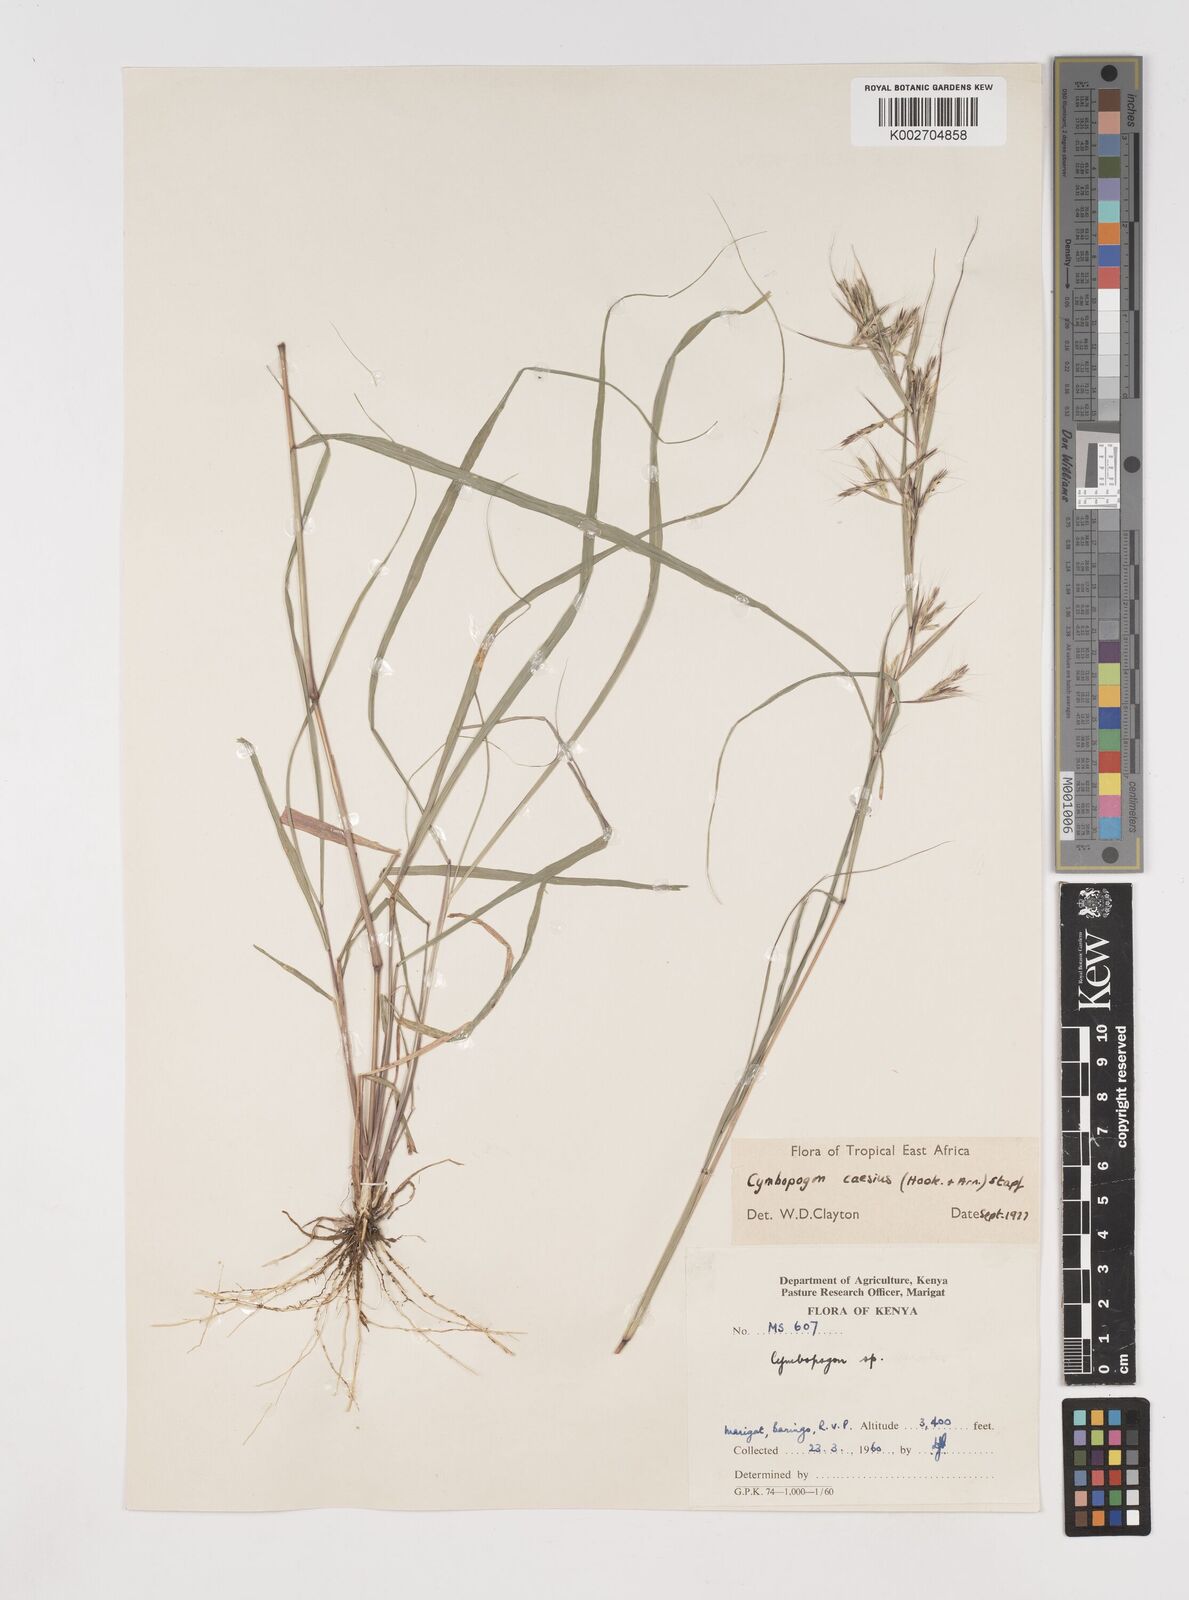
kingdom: Plantae
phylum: Tracheophyta
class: Liliopsida
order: Poales
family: Poaceae
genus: Cymbopogon
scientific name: Cymbopogon caesius
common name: Kachi grass
